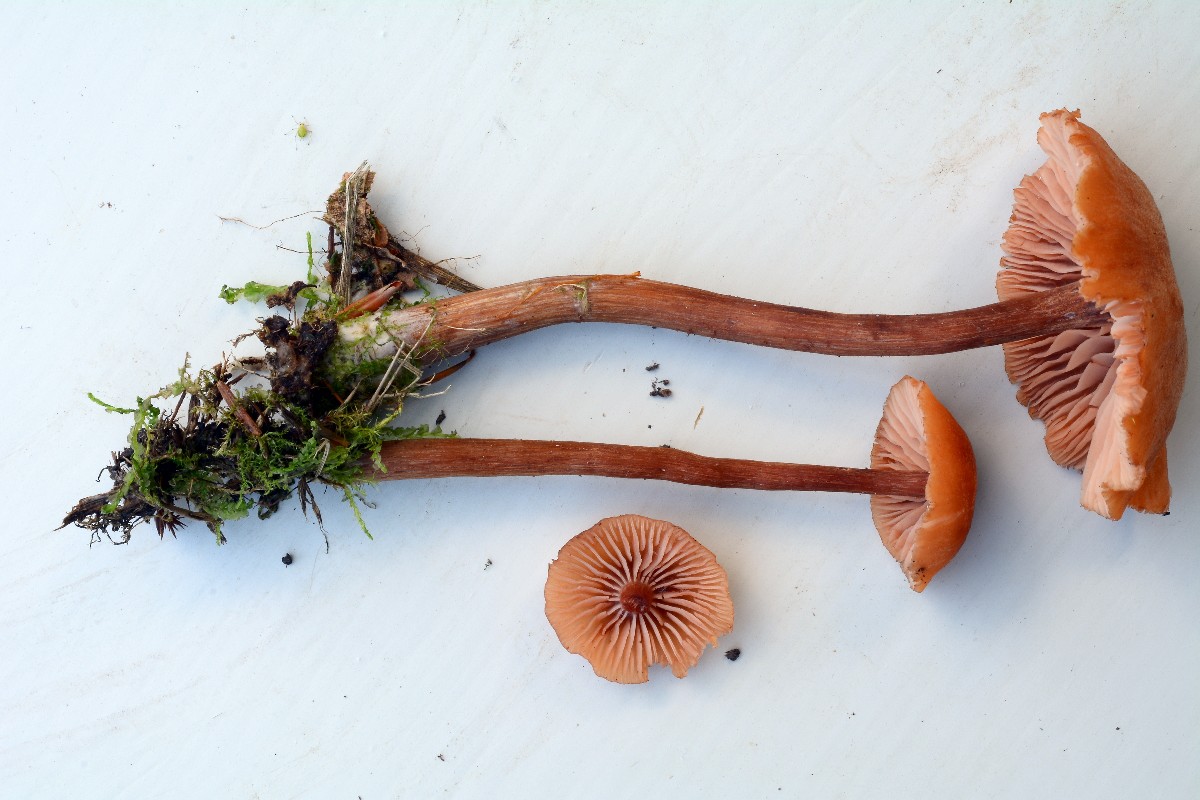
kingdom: Fungi
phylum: Basidiomycota
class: Agaricomycetes
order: Agaricales
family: Hydnangiaceae
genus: Laccaria
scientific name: Laccaria laccata
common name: rød ametysthat
